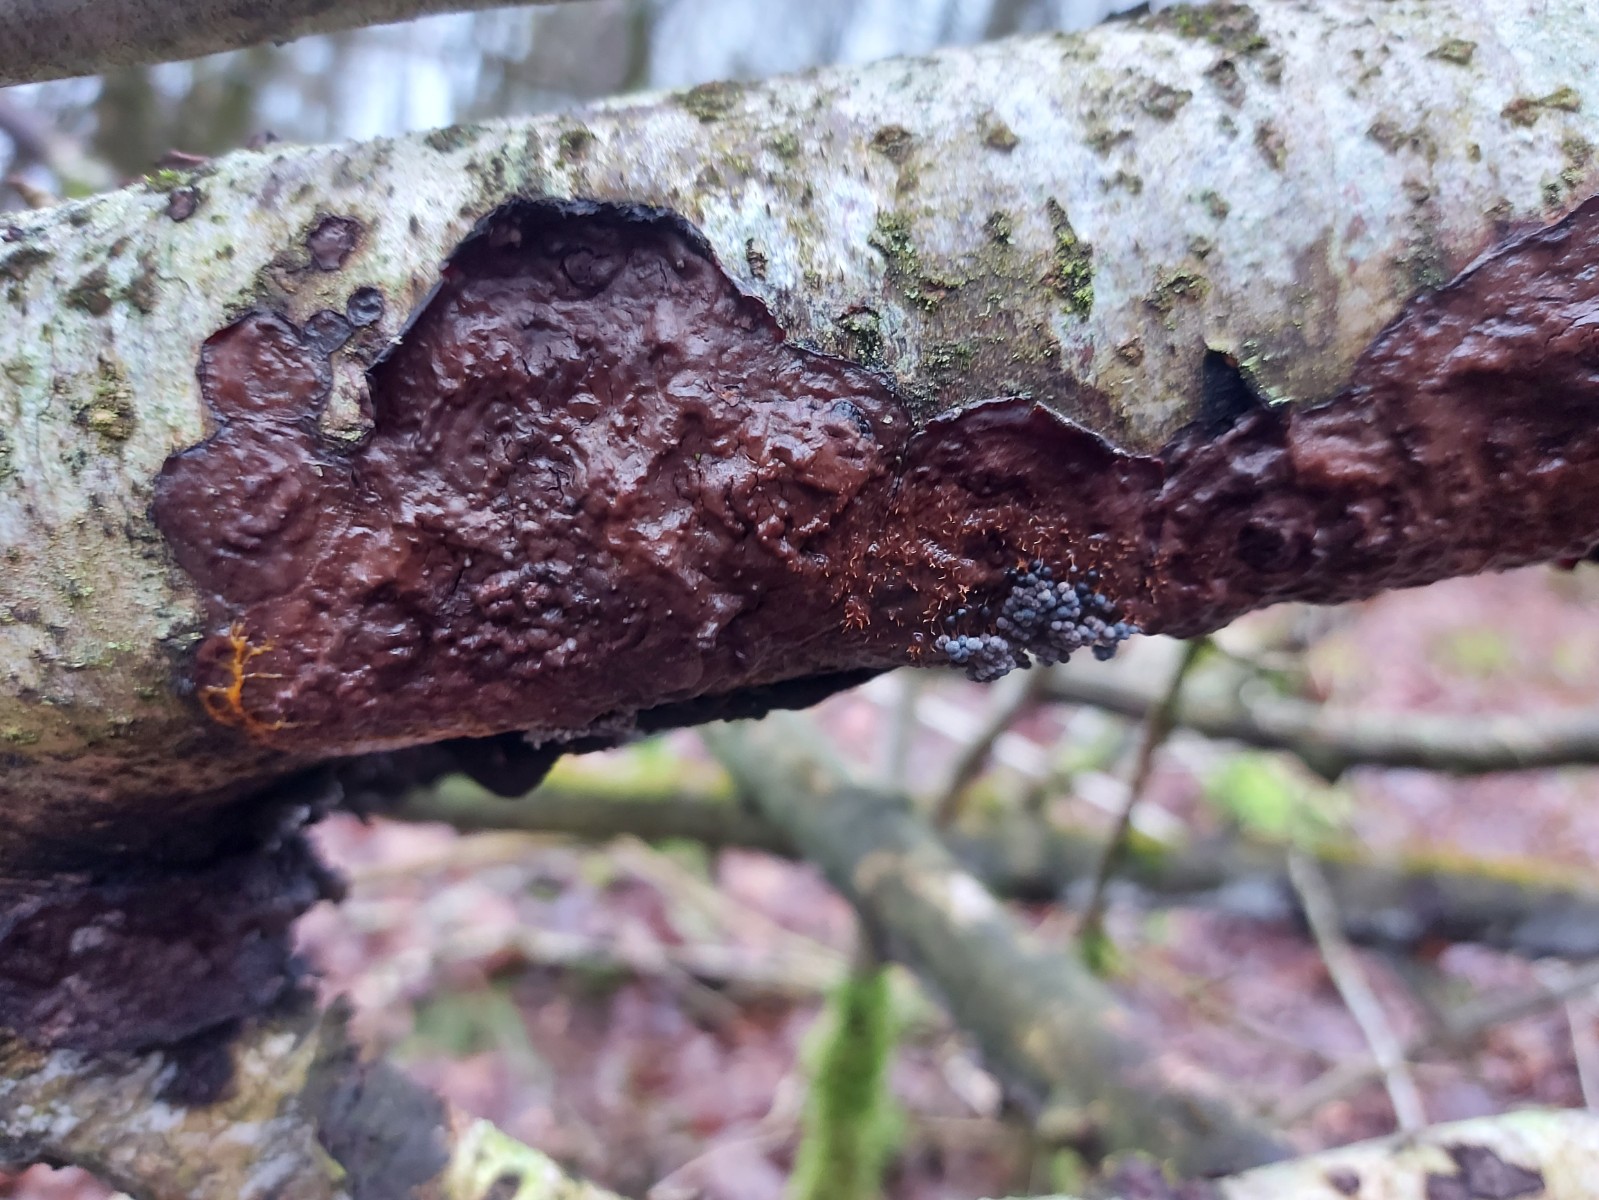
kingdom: Fungi
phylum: Basidiomycota
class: Agaricomycetes
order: Russulales
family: Peniophoraceae
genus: Peniophora
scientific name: Peniophora quercina
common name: ege-voksskind
